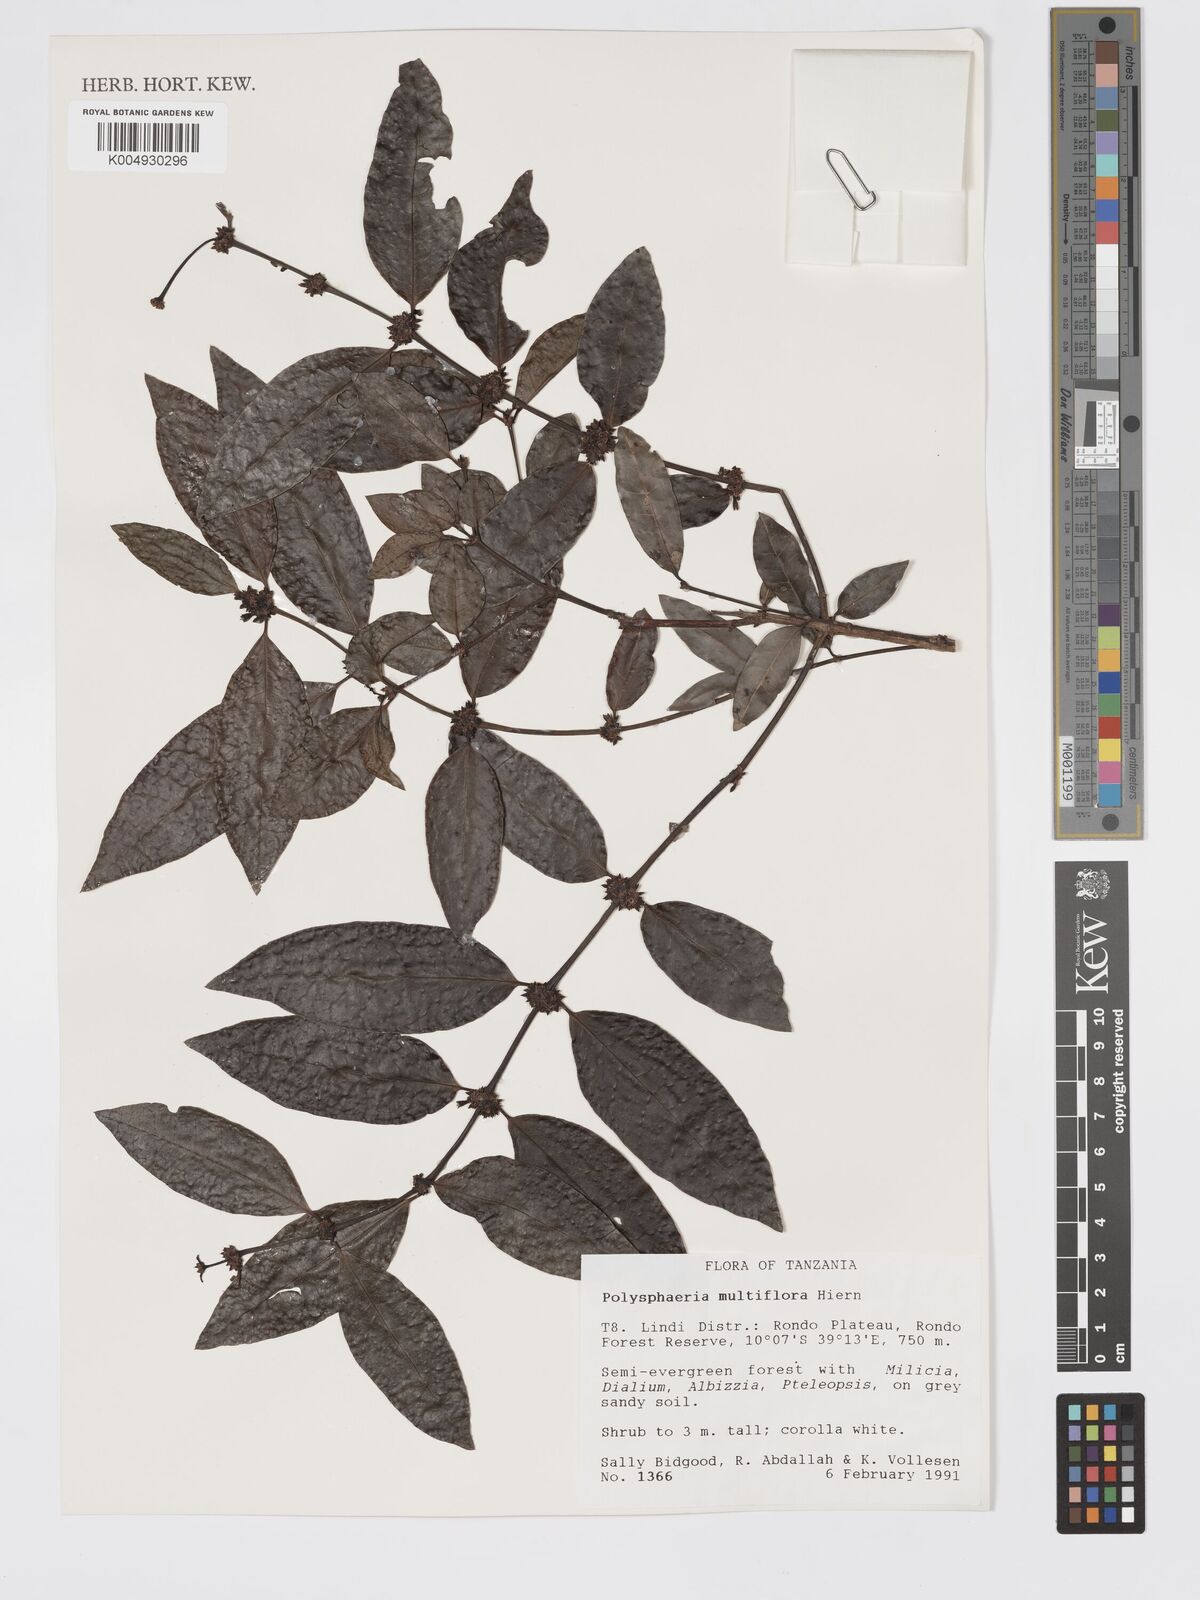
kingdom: Plantae
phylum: Tracheophyta
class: Magnoliopsida
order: Gentianales
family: Rubiaceae
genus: Polysphaeria
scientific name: Polysphaeria multiflora
